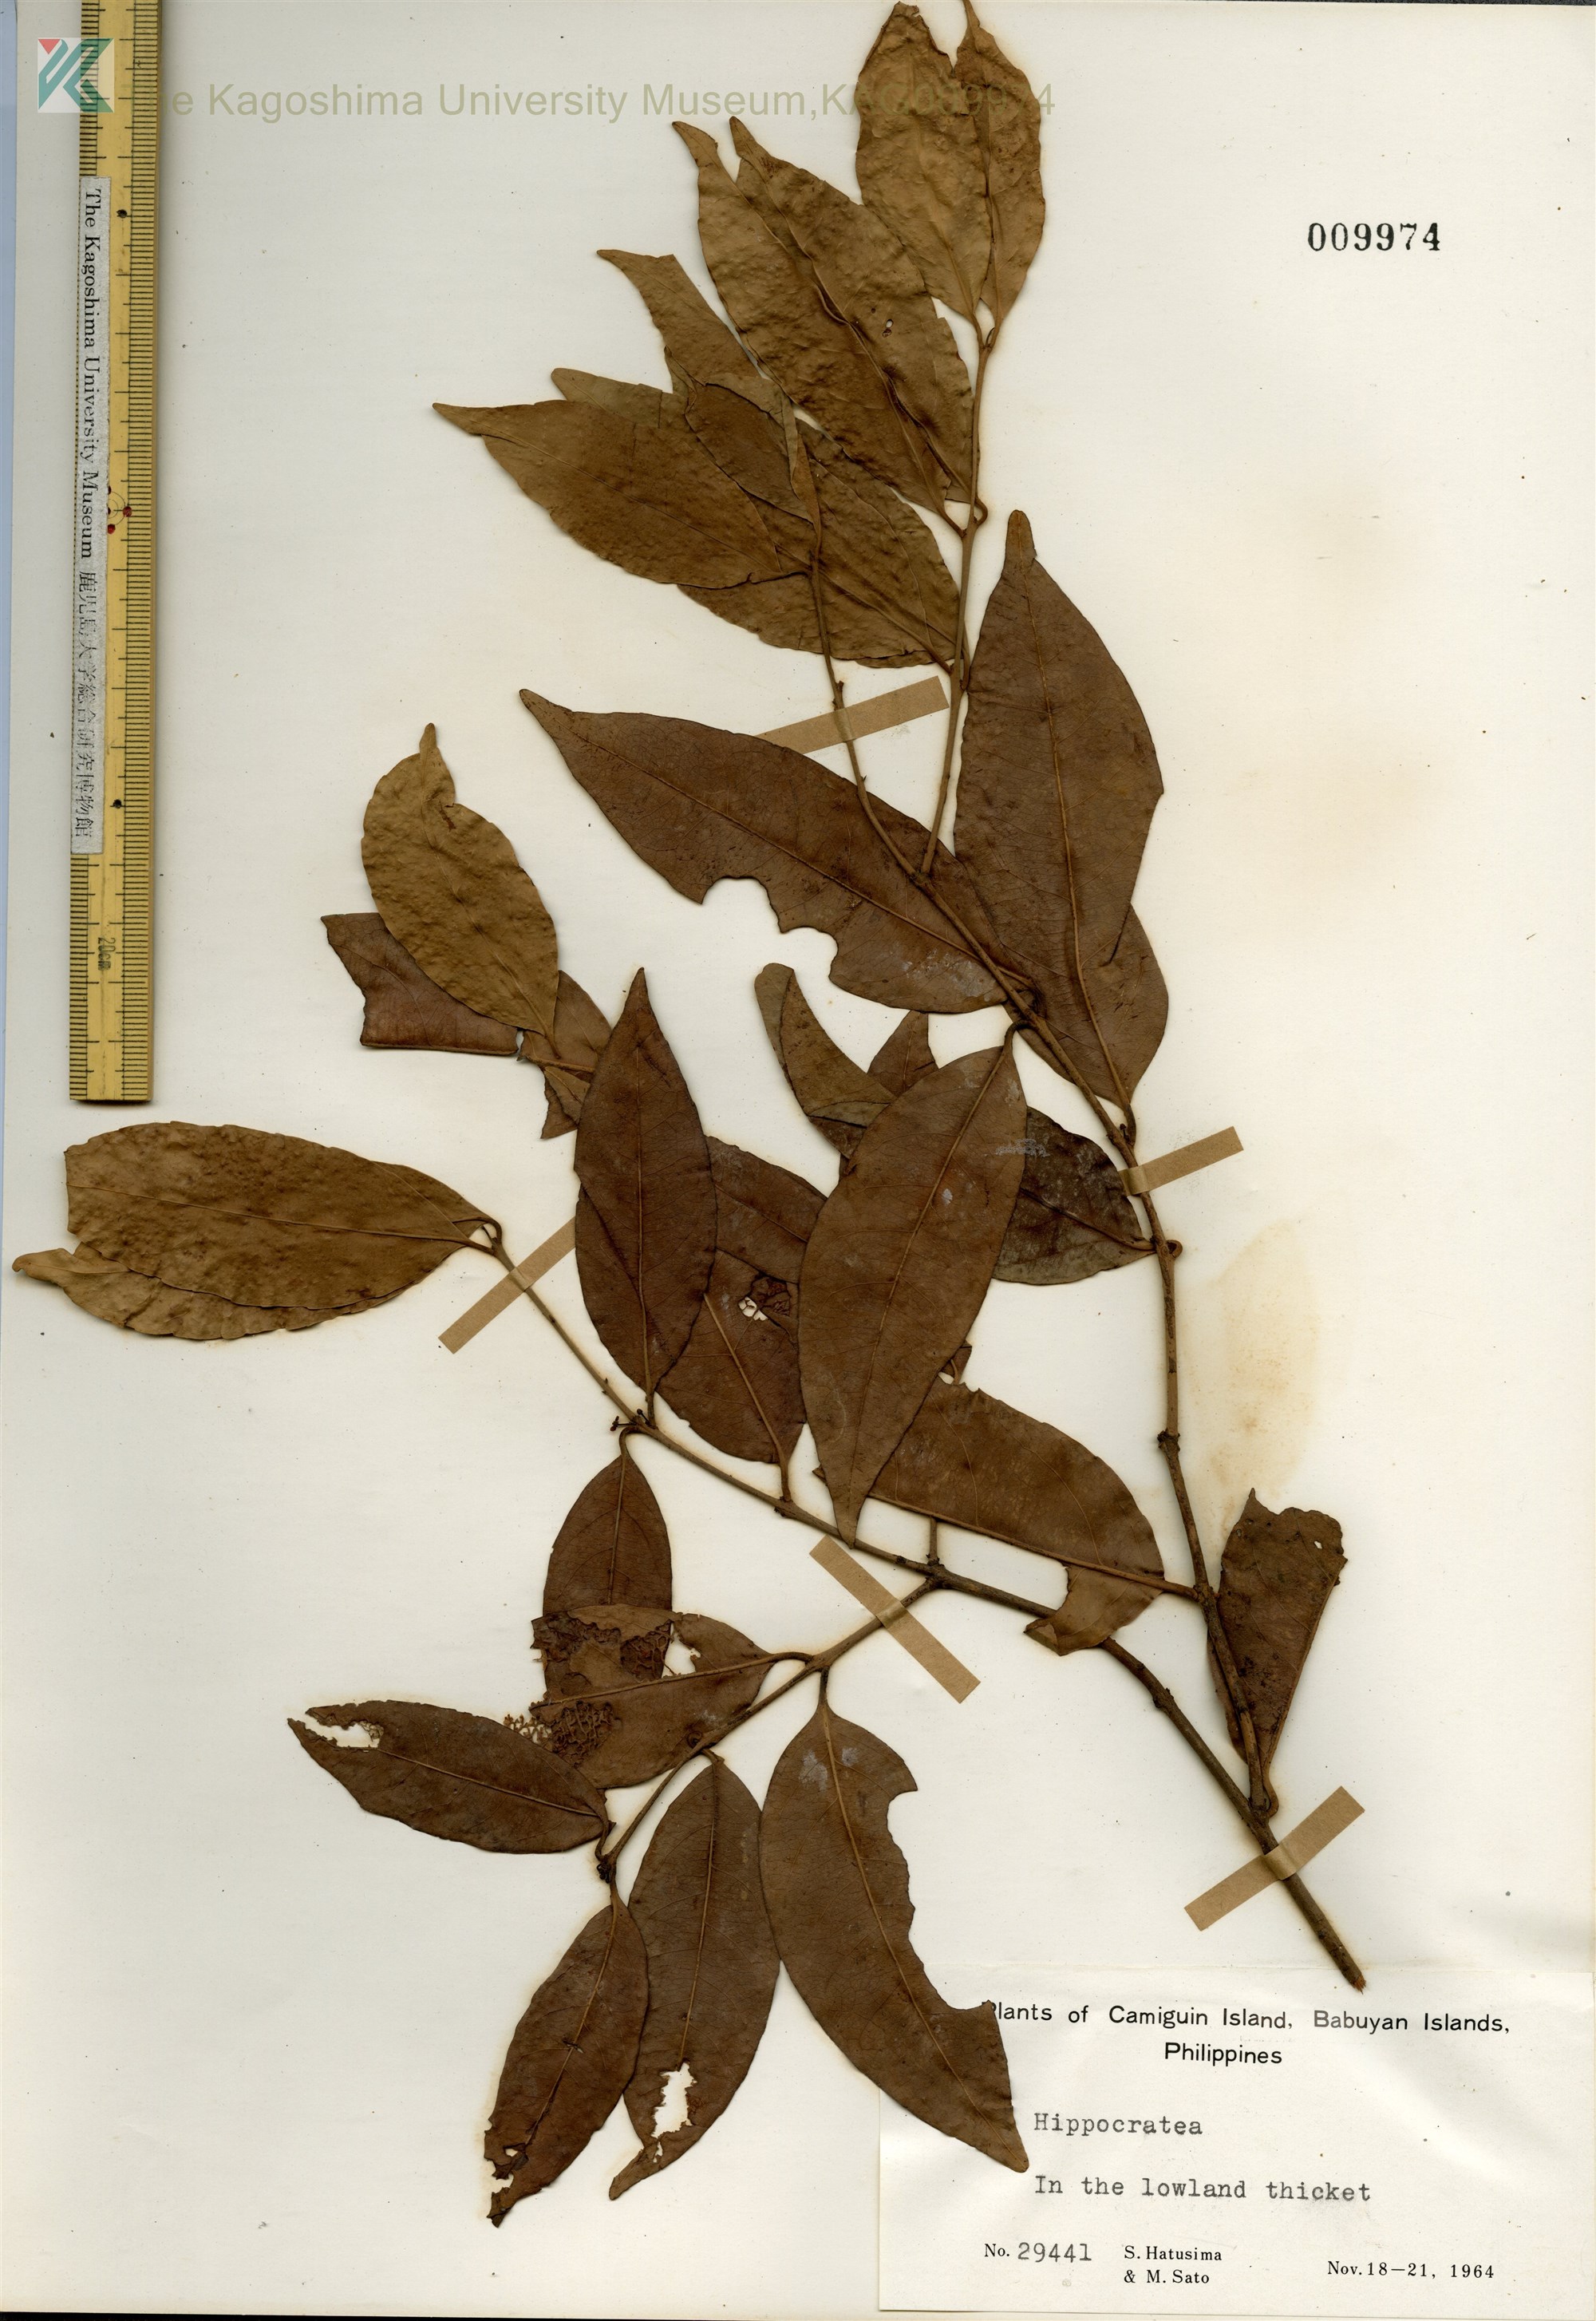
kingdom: Plantae
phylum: Tracheophyta
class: Magnoliopsida
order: Celastrales
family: Celastraceae
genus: Hippocratea
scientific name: Hippocratea
